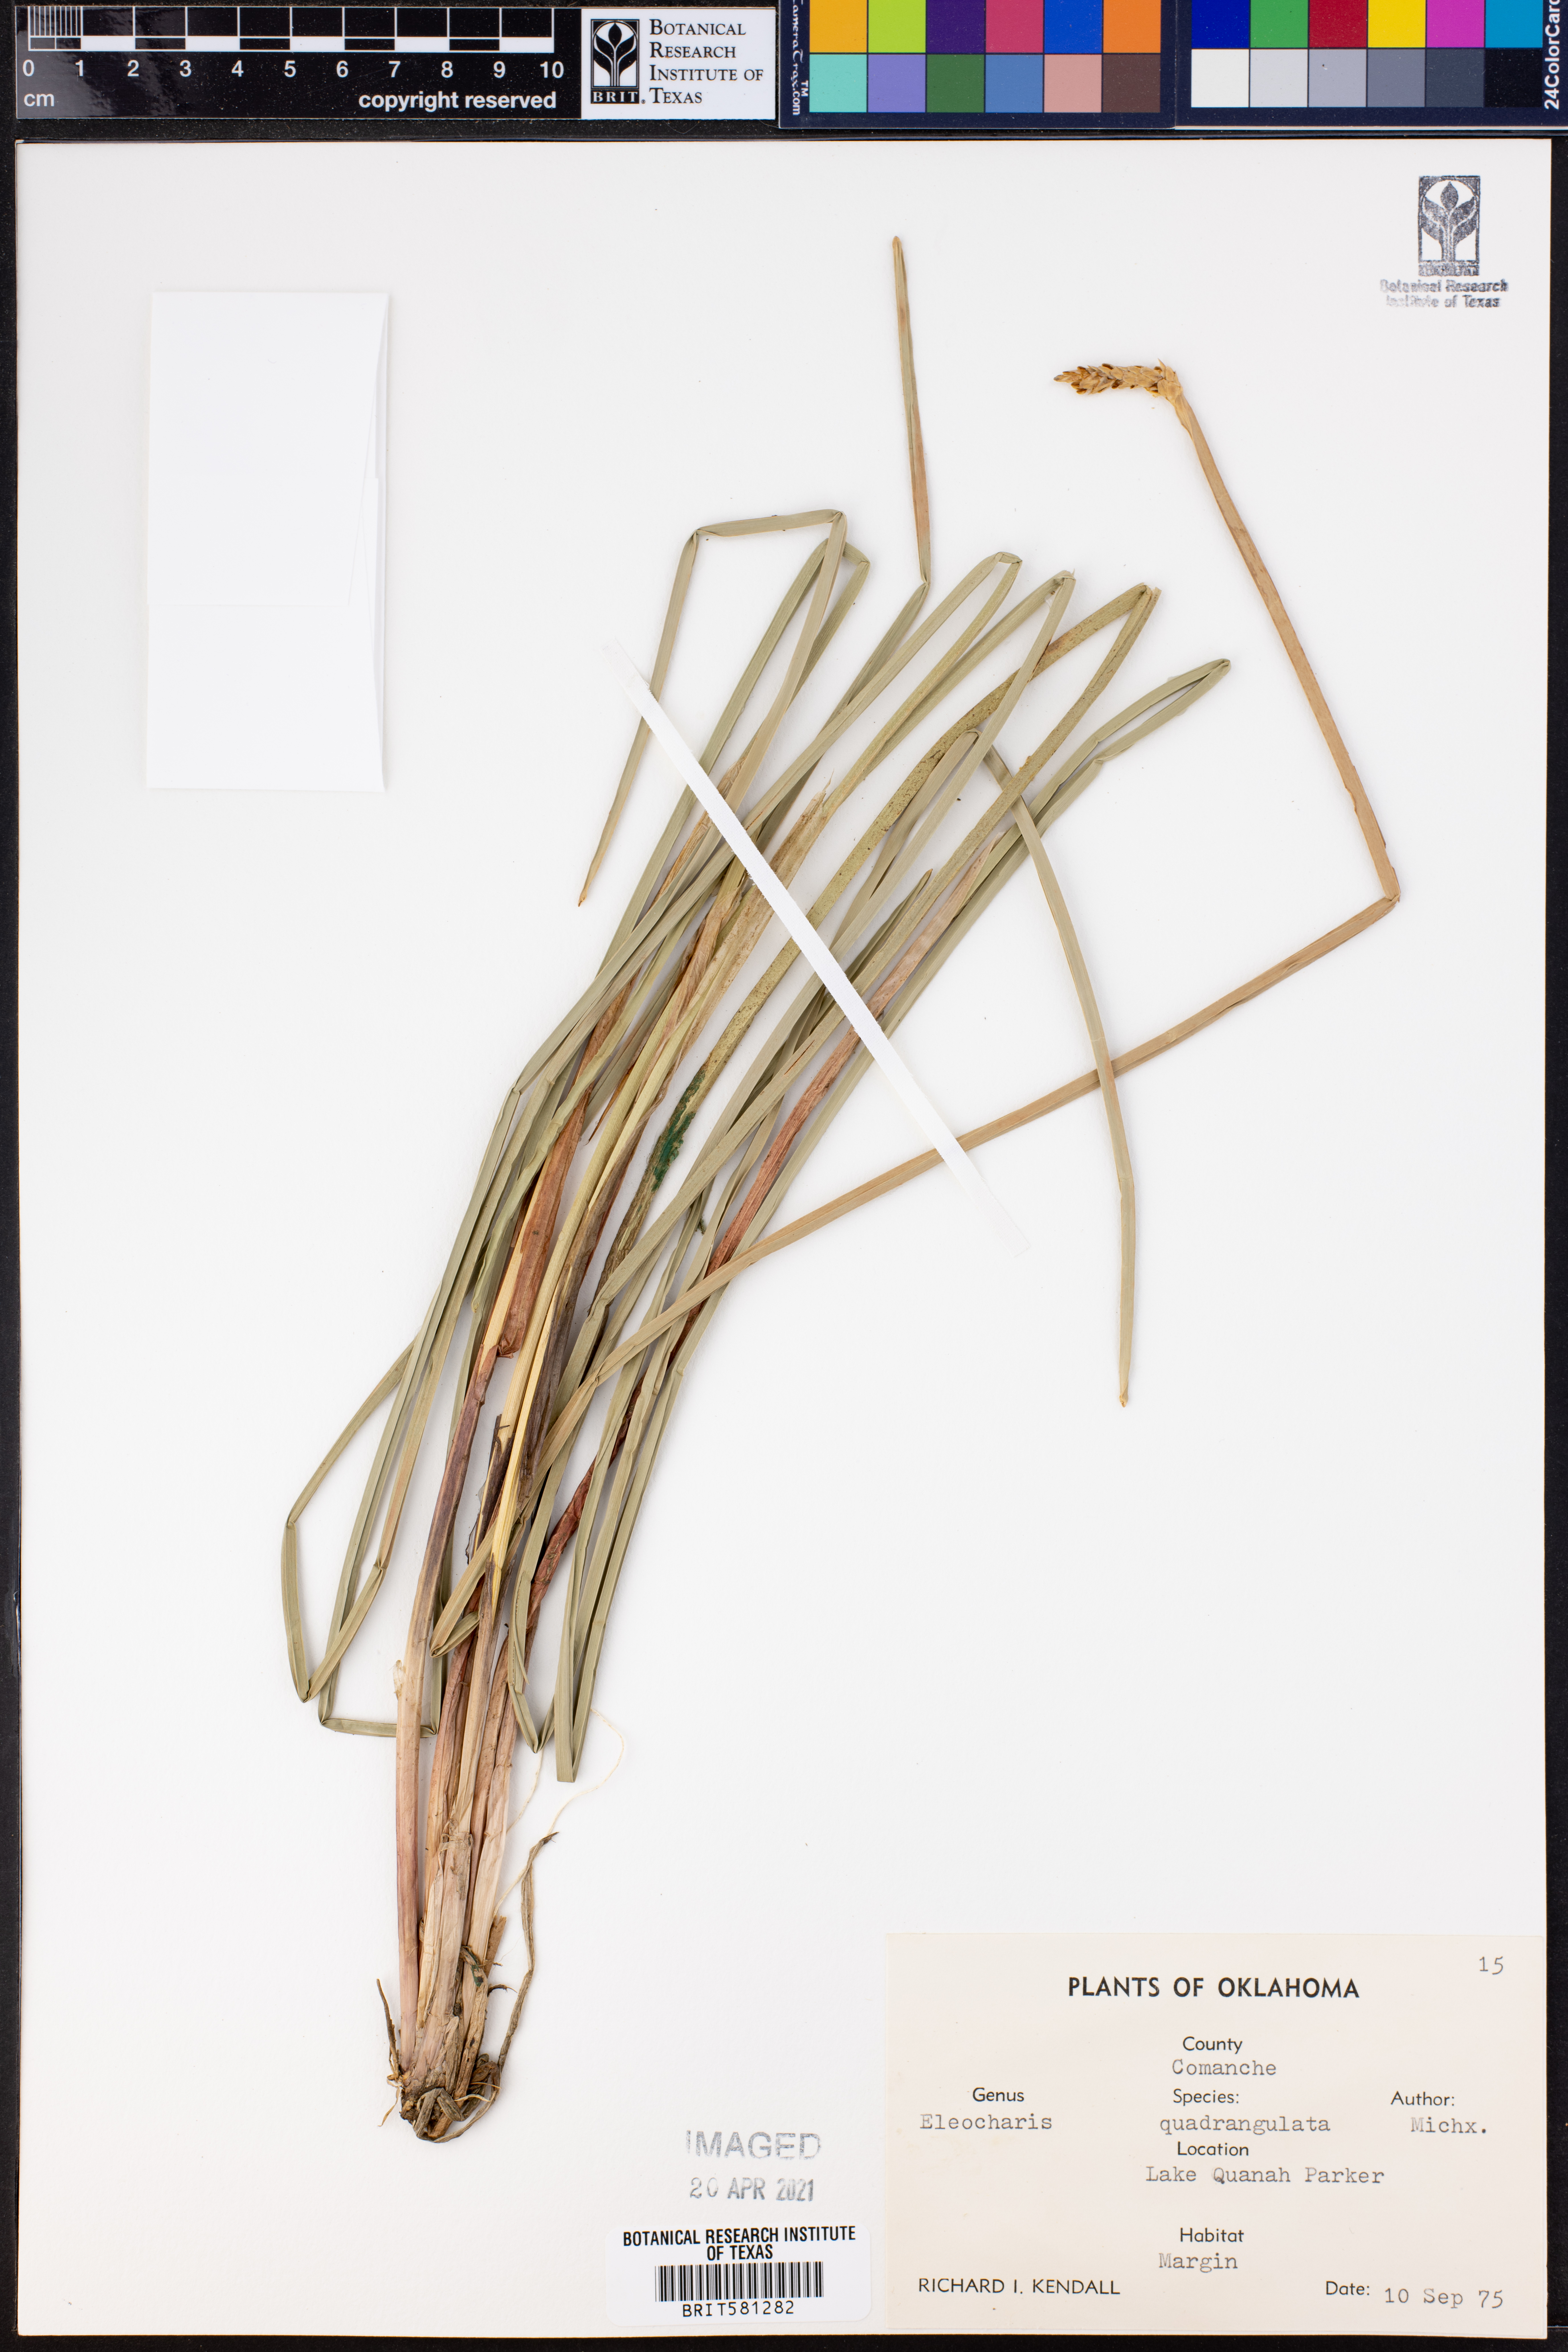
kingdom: Plantae
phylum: Tracheophyta
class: Liliopsida
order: Poales
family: Cyperaceae
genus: Eleocharis
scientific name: Eleocharis quadrangulata
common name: Square-stem spike-rush
